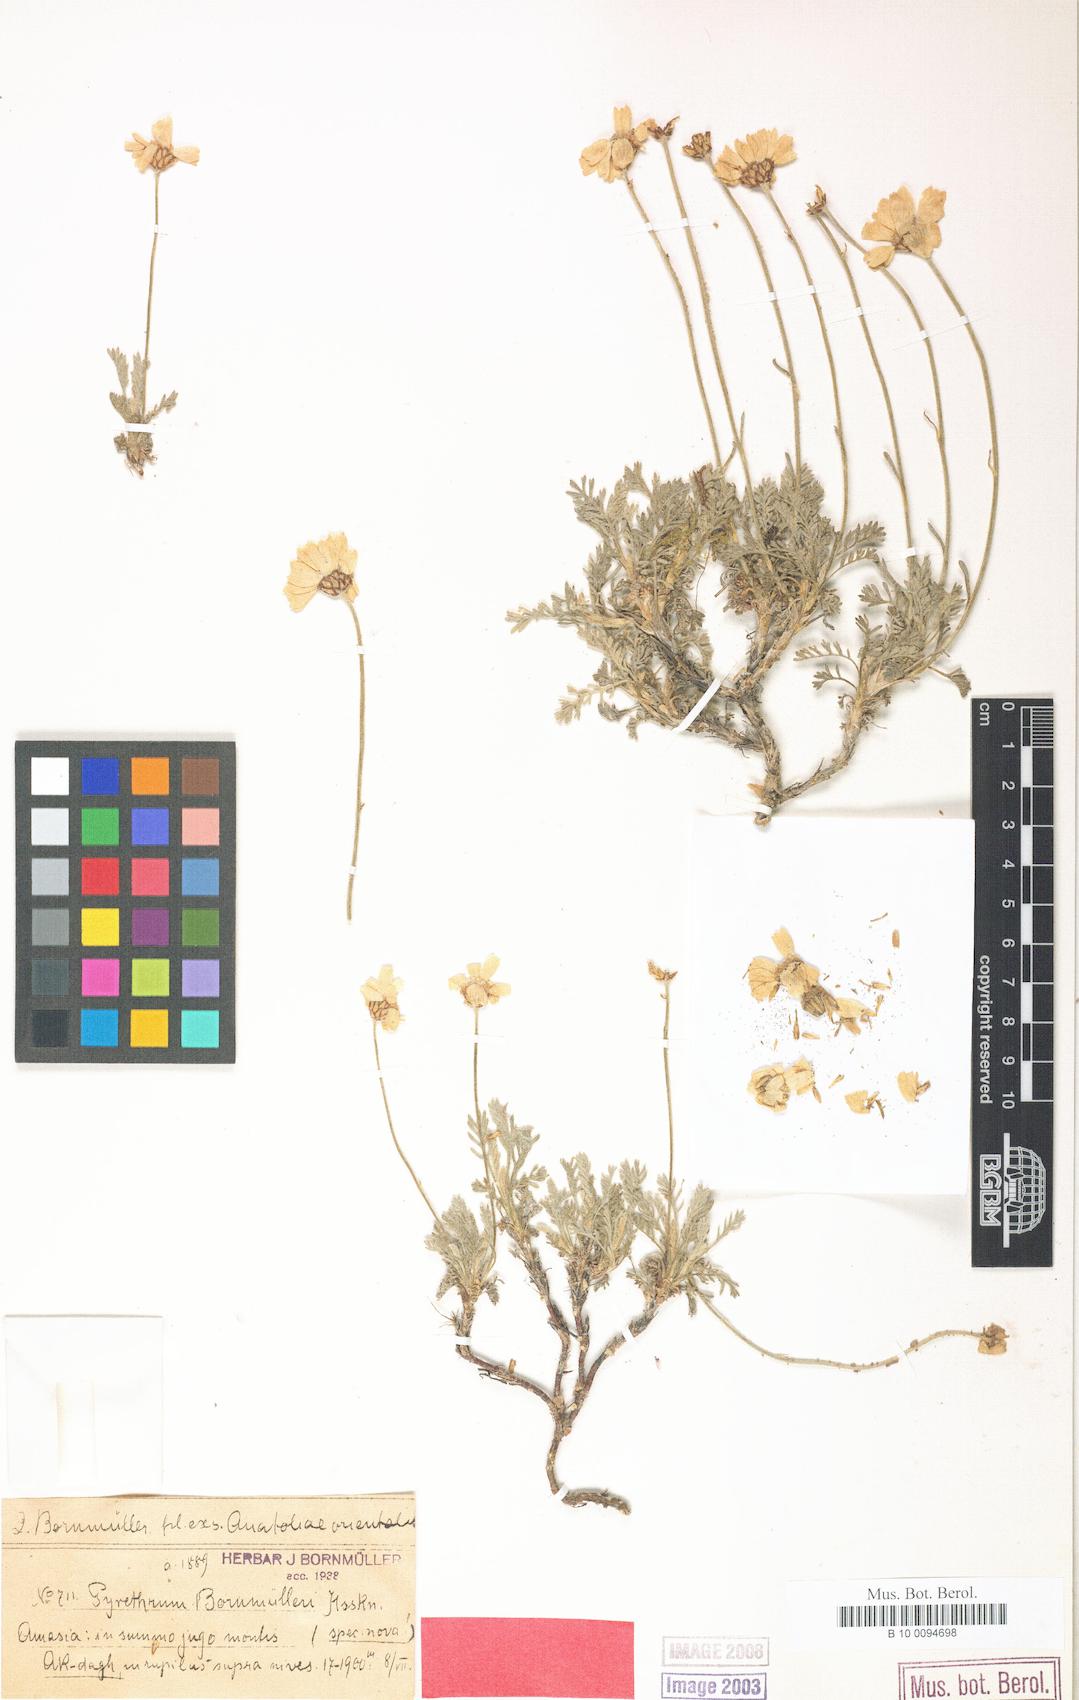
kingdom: Plantae
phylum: Tracheophyta
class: Magnoliopsida
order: Asterales
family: Asteraceae
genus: Tanacetum
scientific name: Tanacetum armenum
